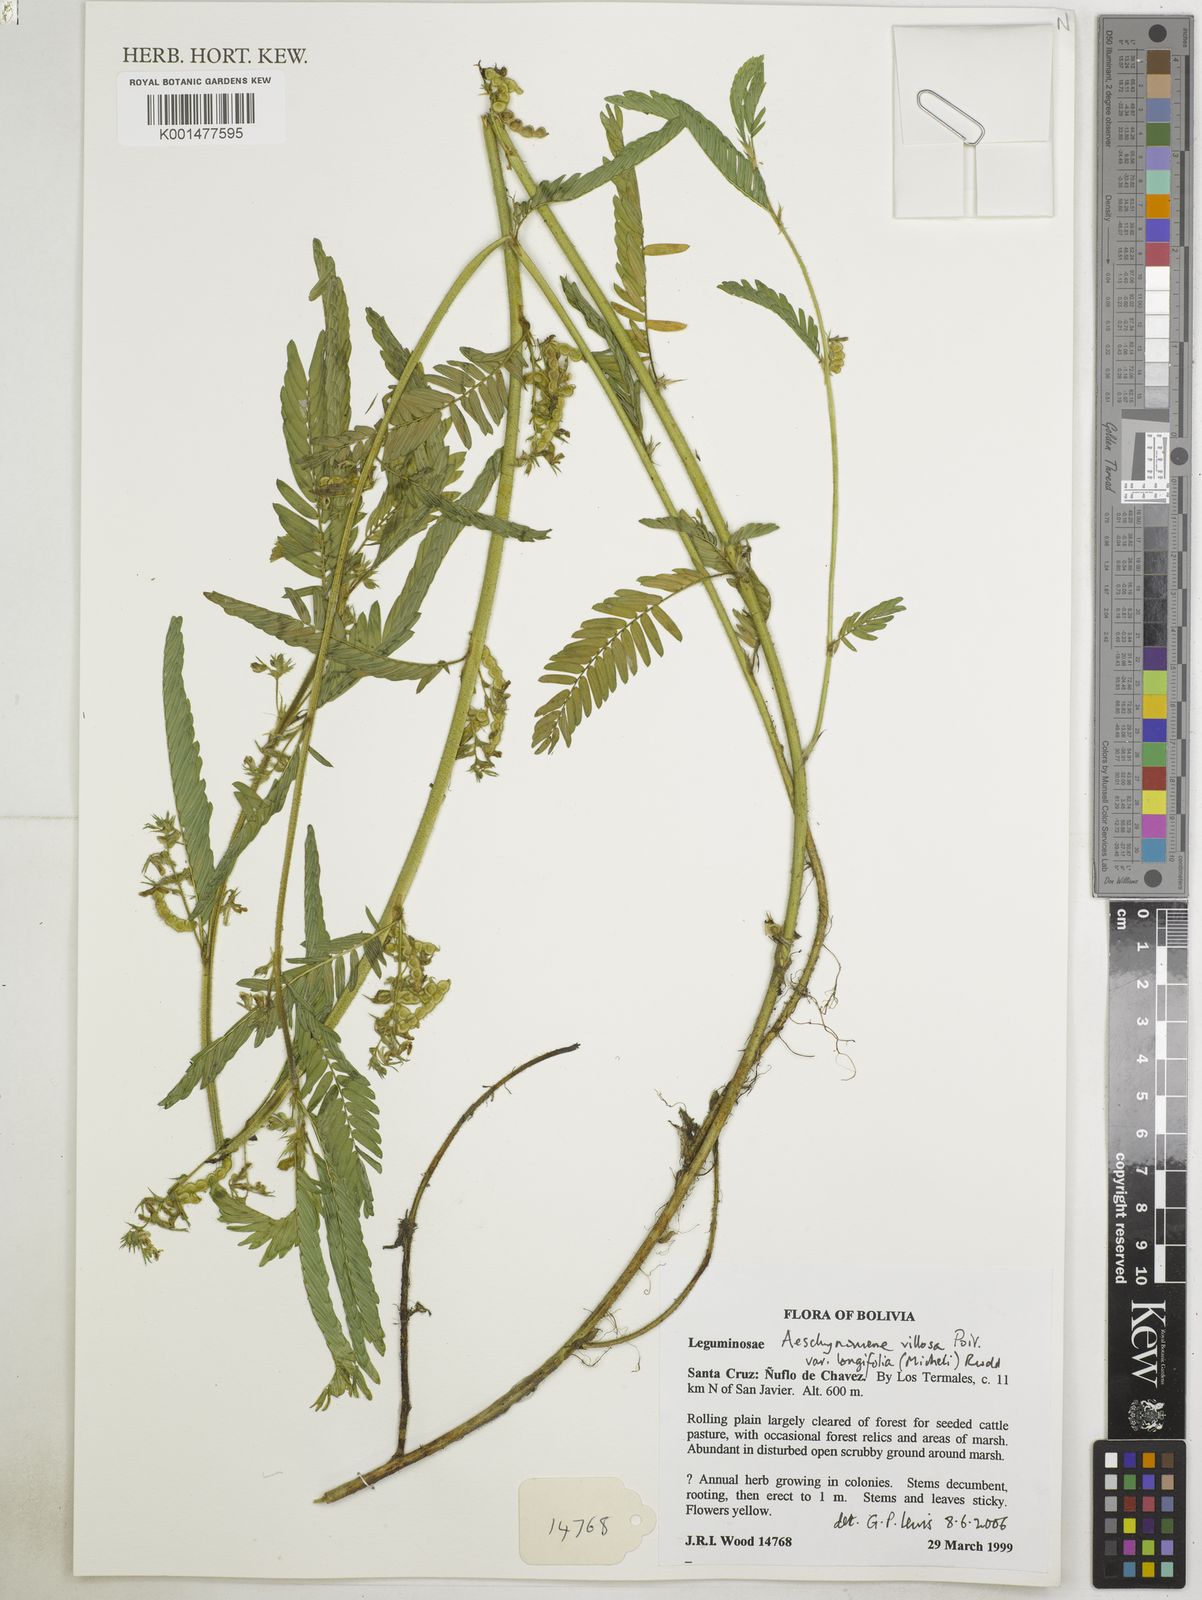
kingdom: Plantae
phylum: Tracheophyta
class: Magnoliopsida
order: Fabales
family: Fabaceae
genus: Aeschynomene
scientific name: Aeschynomene villosa
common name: Hairy-jointvetch
